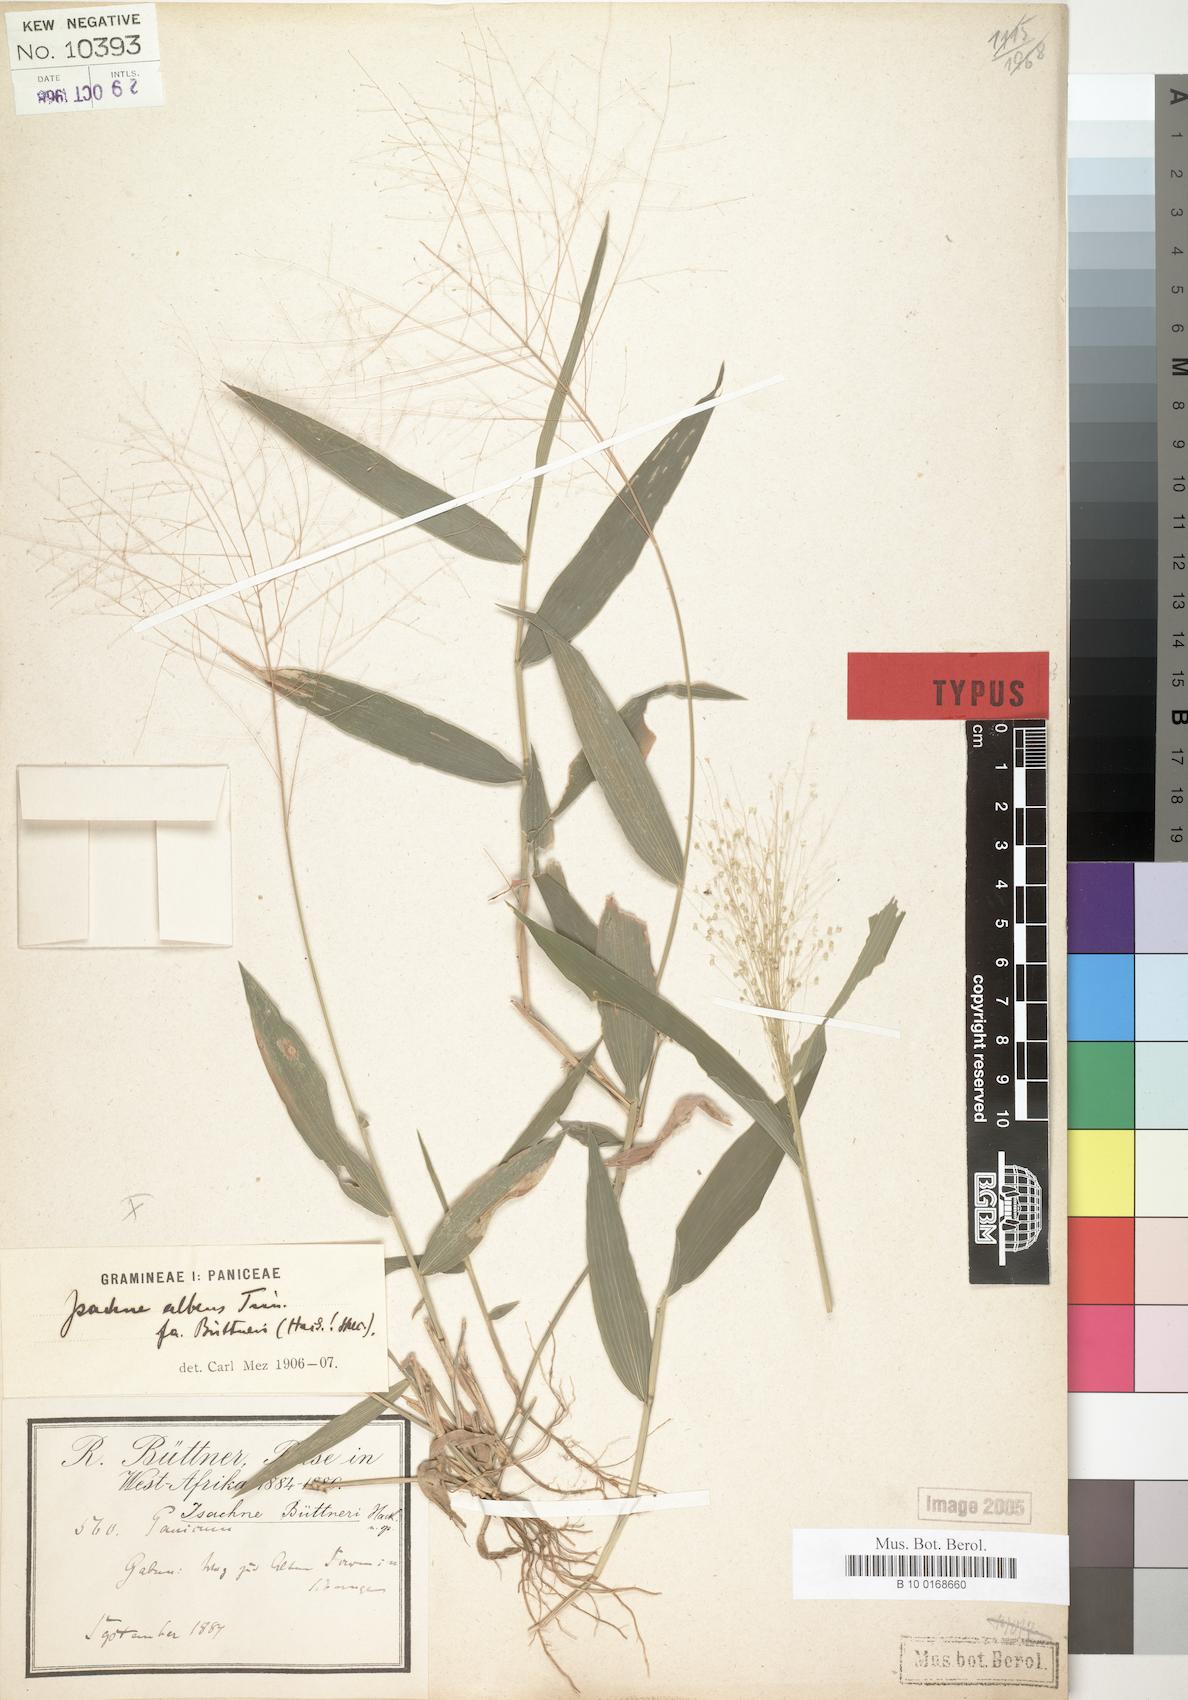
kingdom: Plantae
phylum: Tracheophyta
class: Liliopsida
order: Poales
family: Poaceae
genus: Isachne
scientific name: Isachne buettneri
